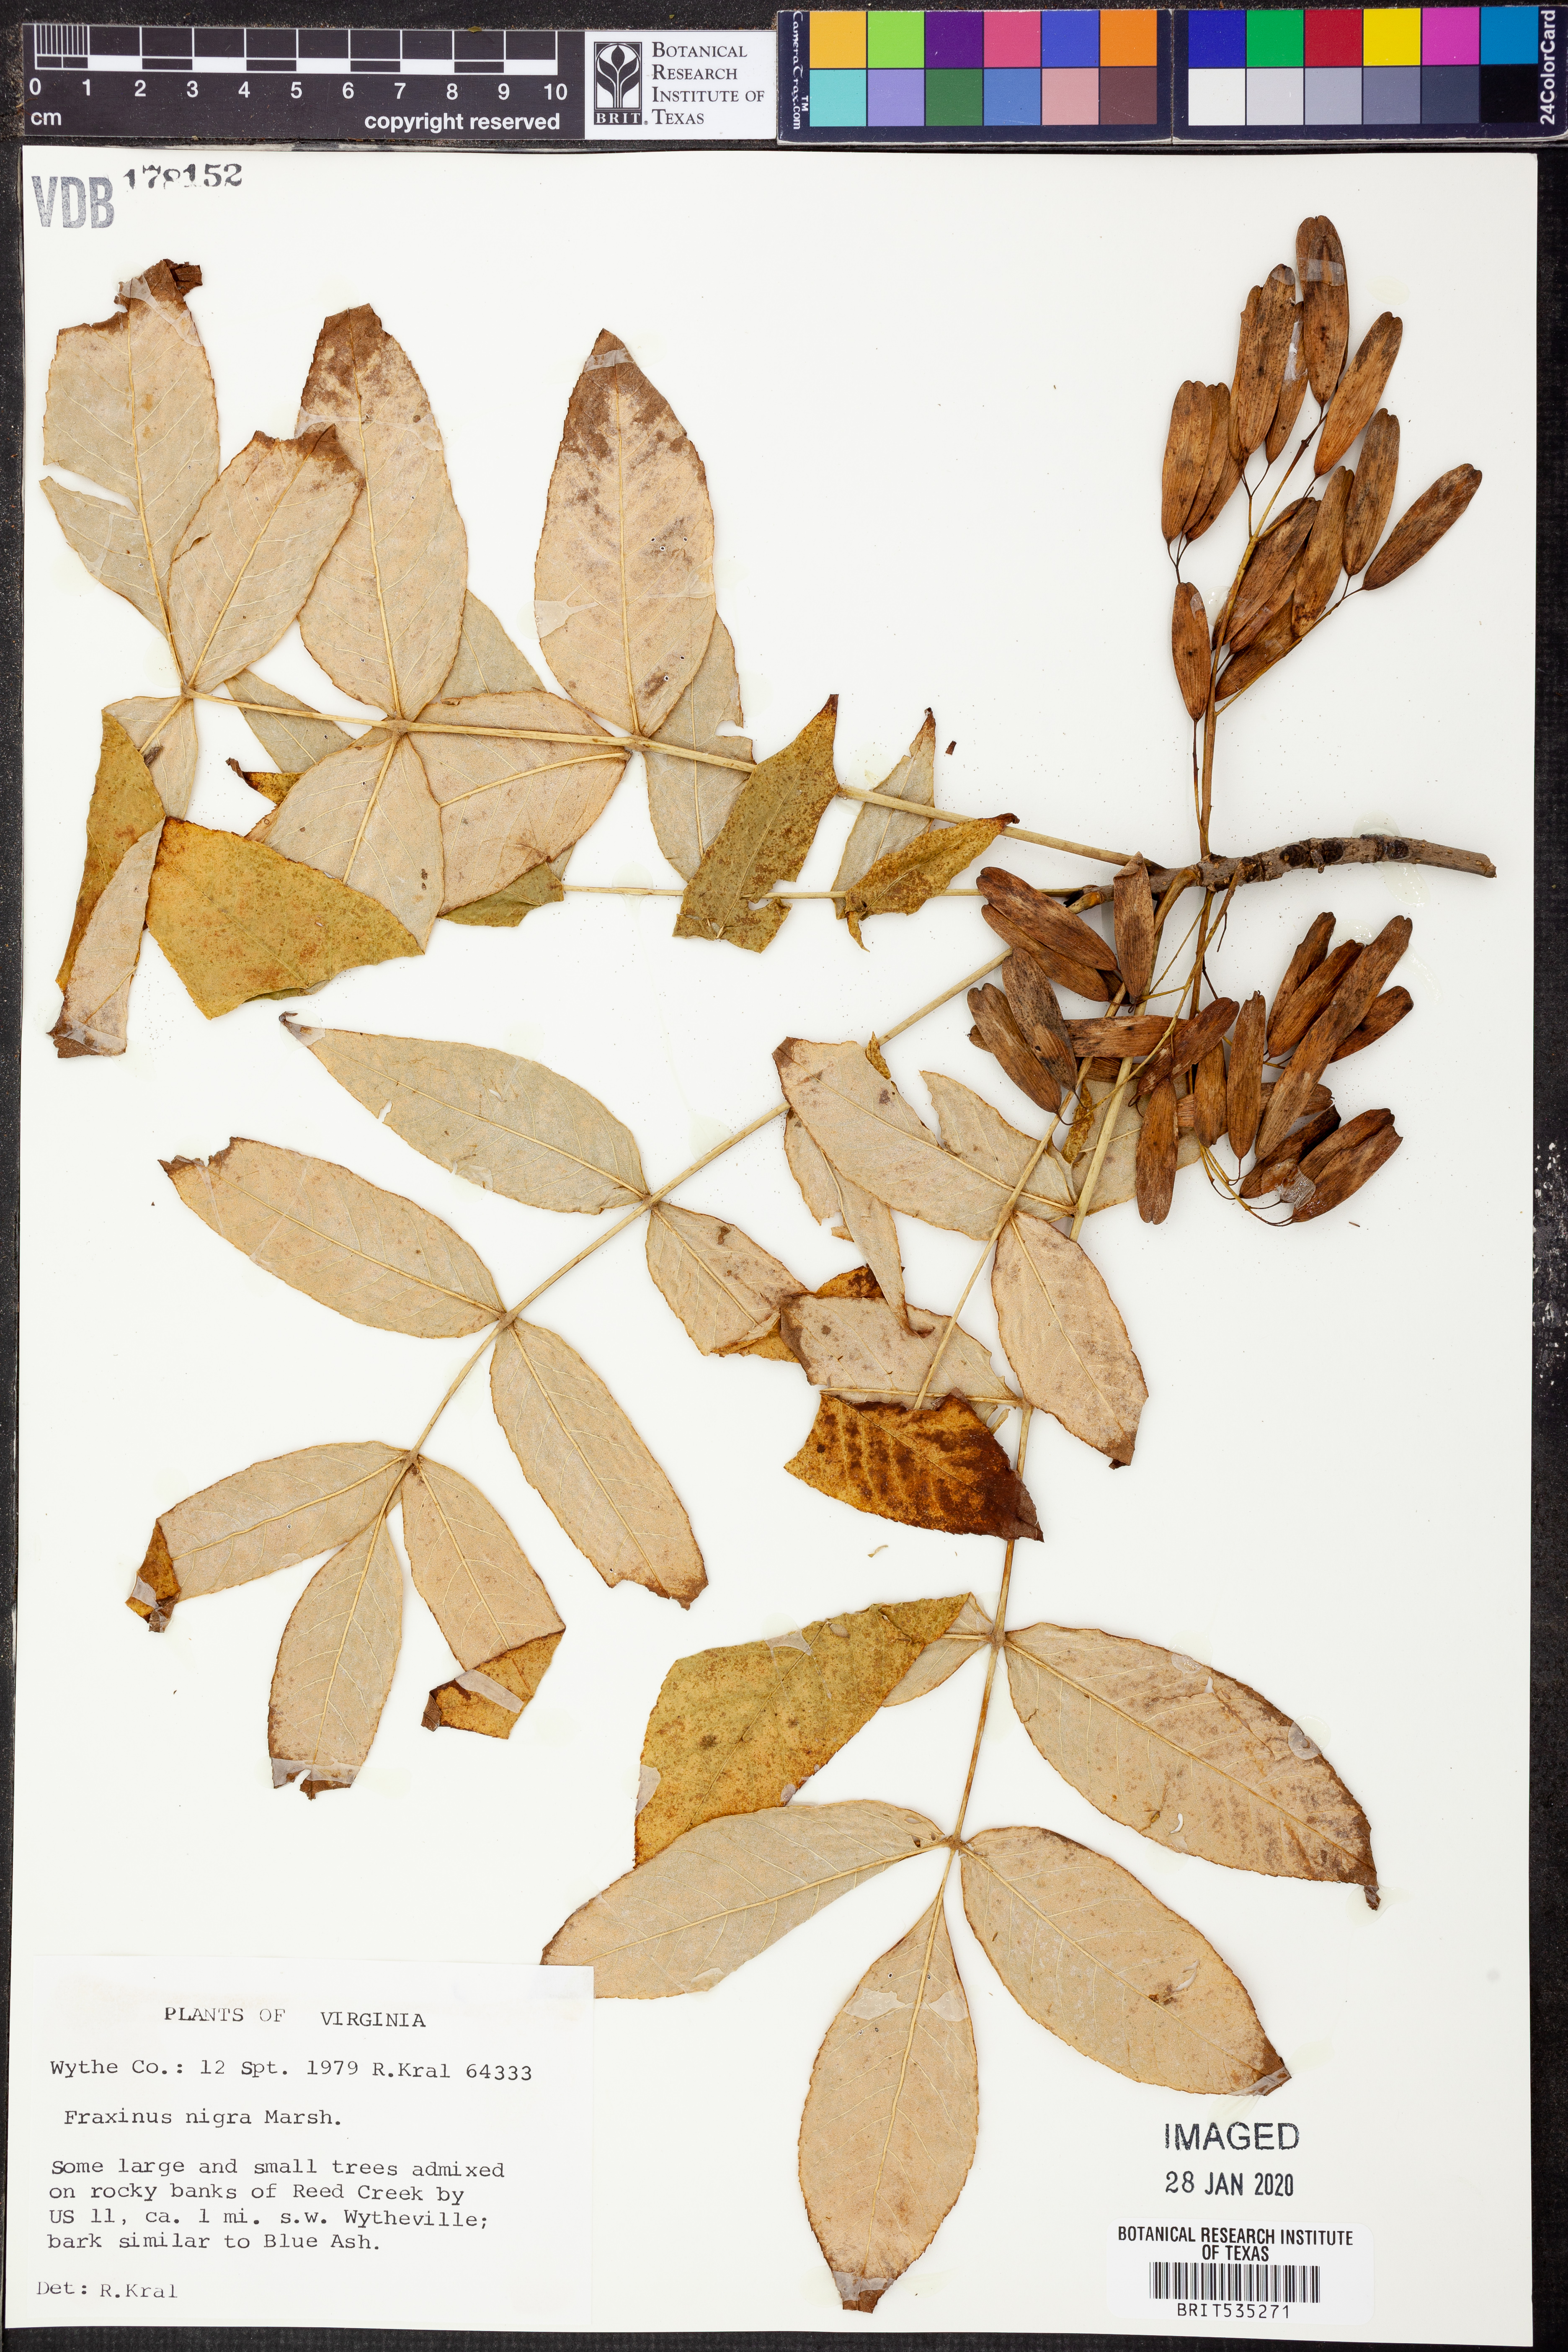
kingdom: Plantae
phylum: Tracheophyta
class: Magnoliopsida
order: Lamiales
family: Oleaceae
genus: Fraxinus
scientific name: Fraxinus nigra
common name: Black ash
